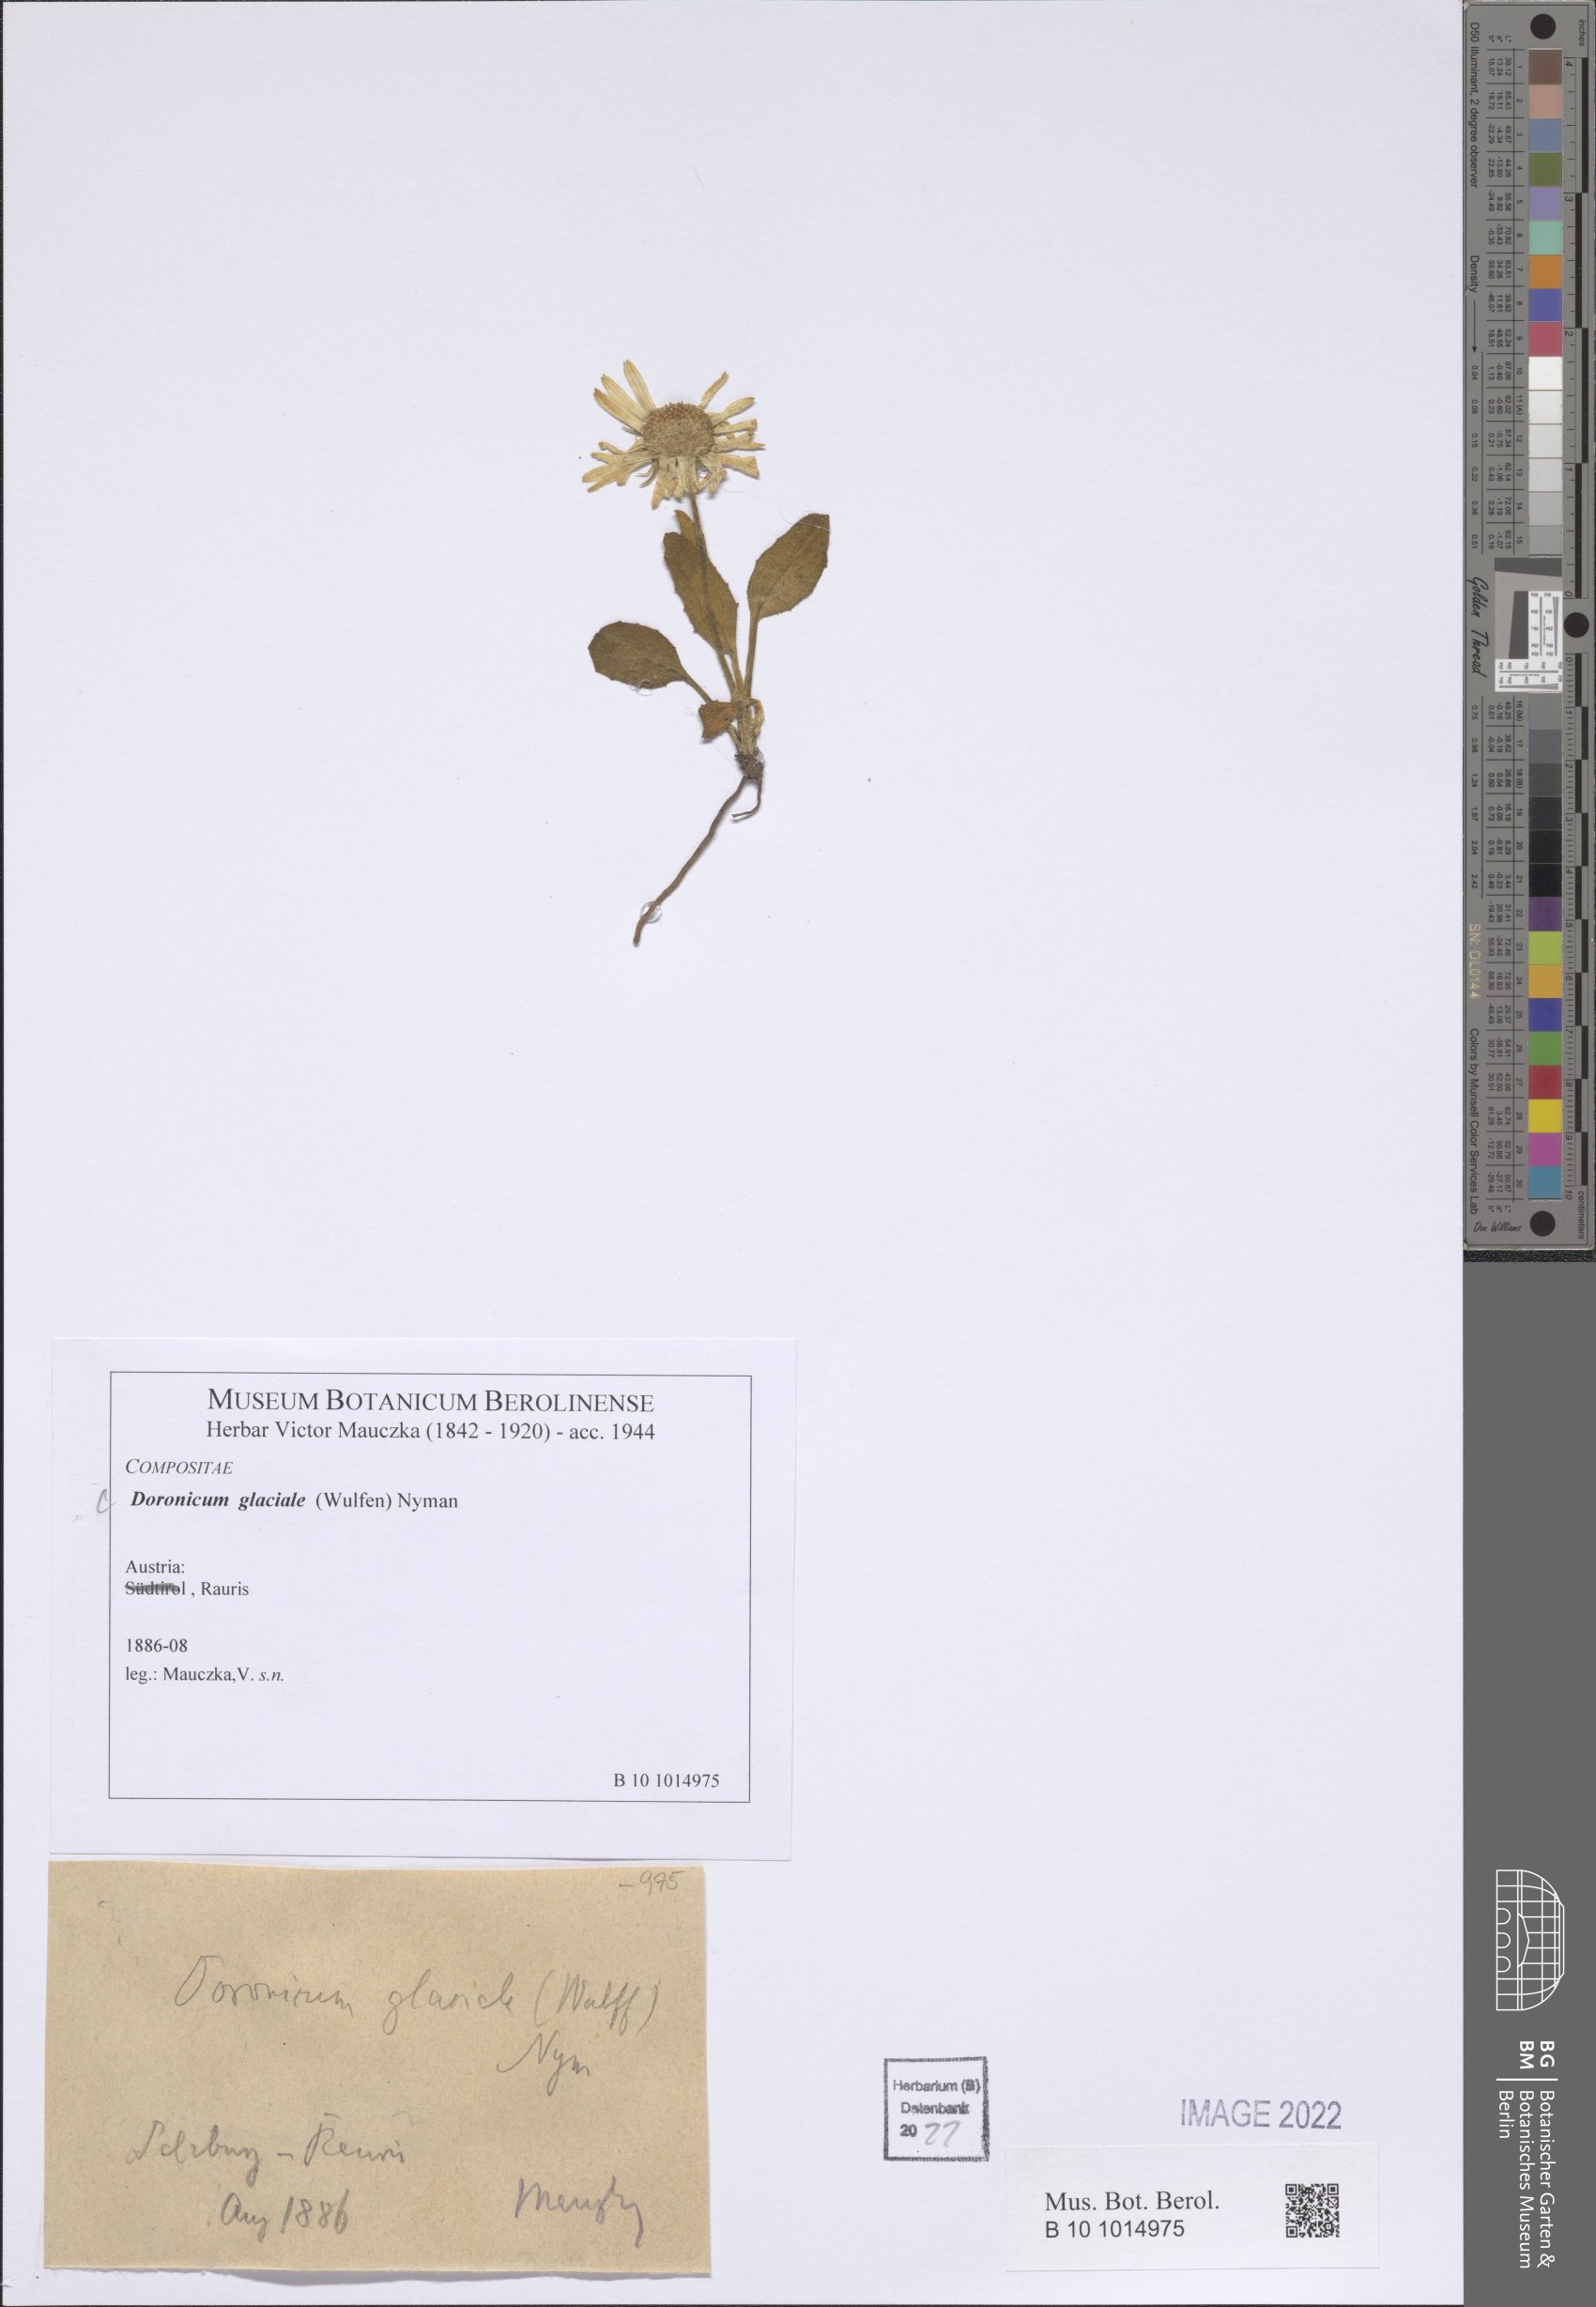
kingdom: Plantae
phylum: Tracheophyta
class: Magnoliopsida
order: Asterales
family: Asteraceae
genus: Doronicum
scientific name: Doronicum glaciale
